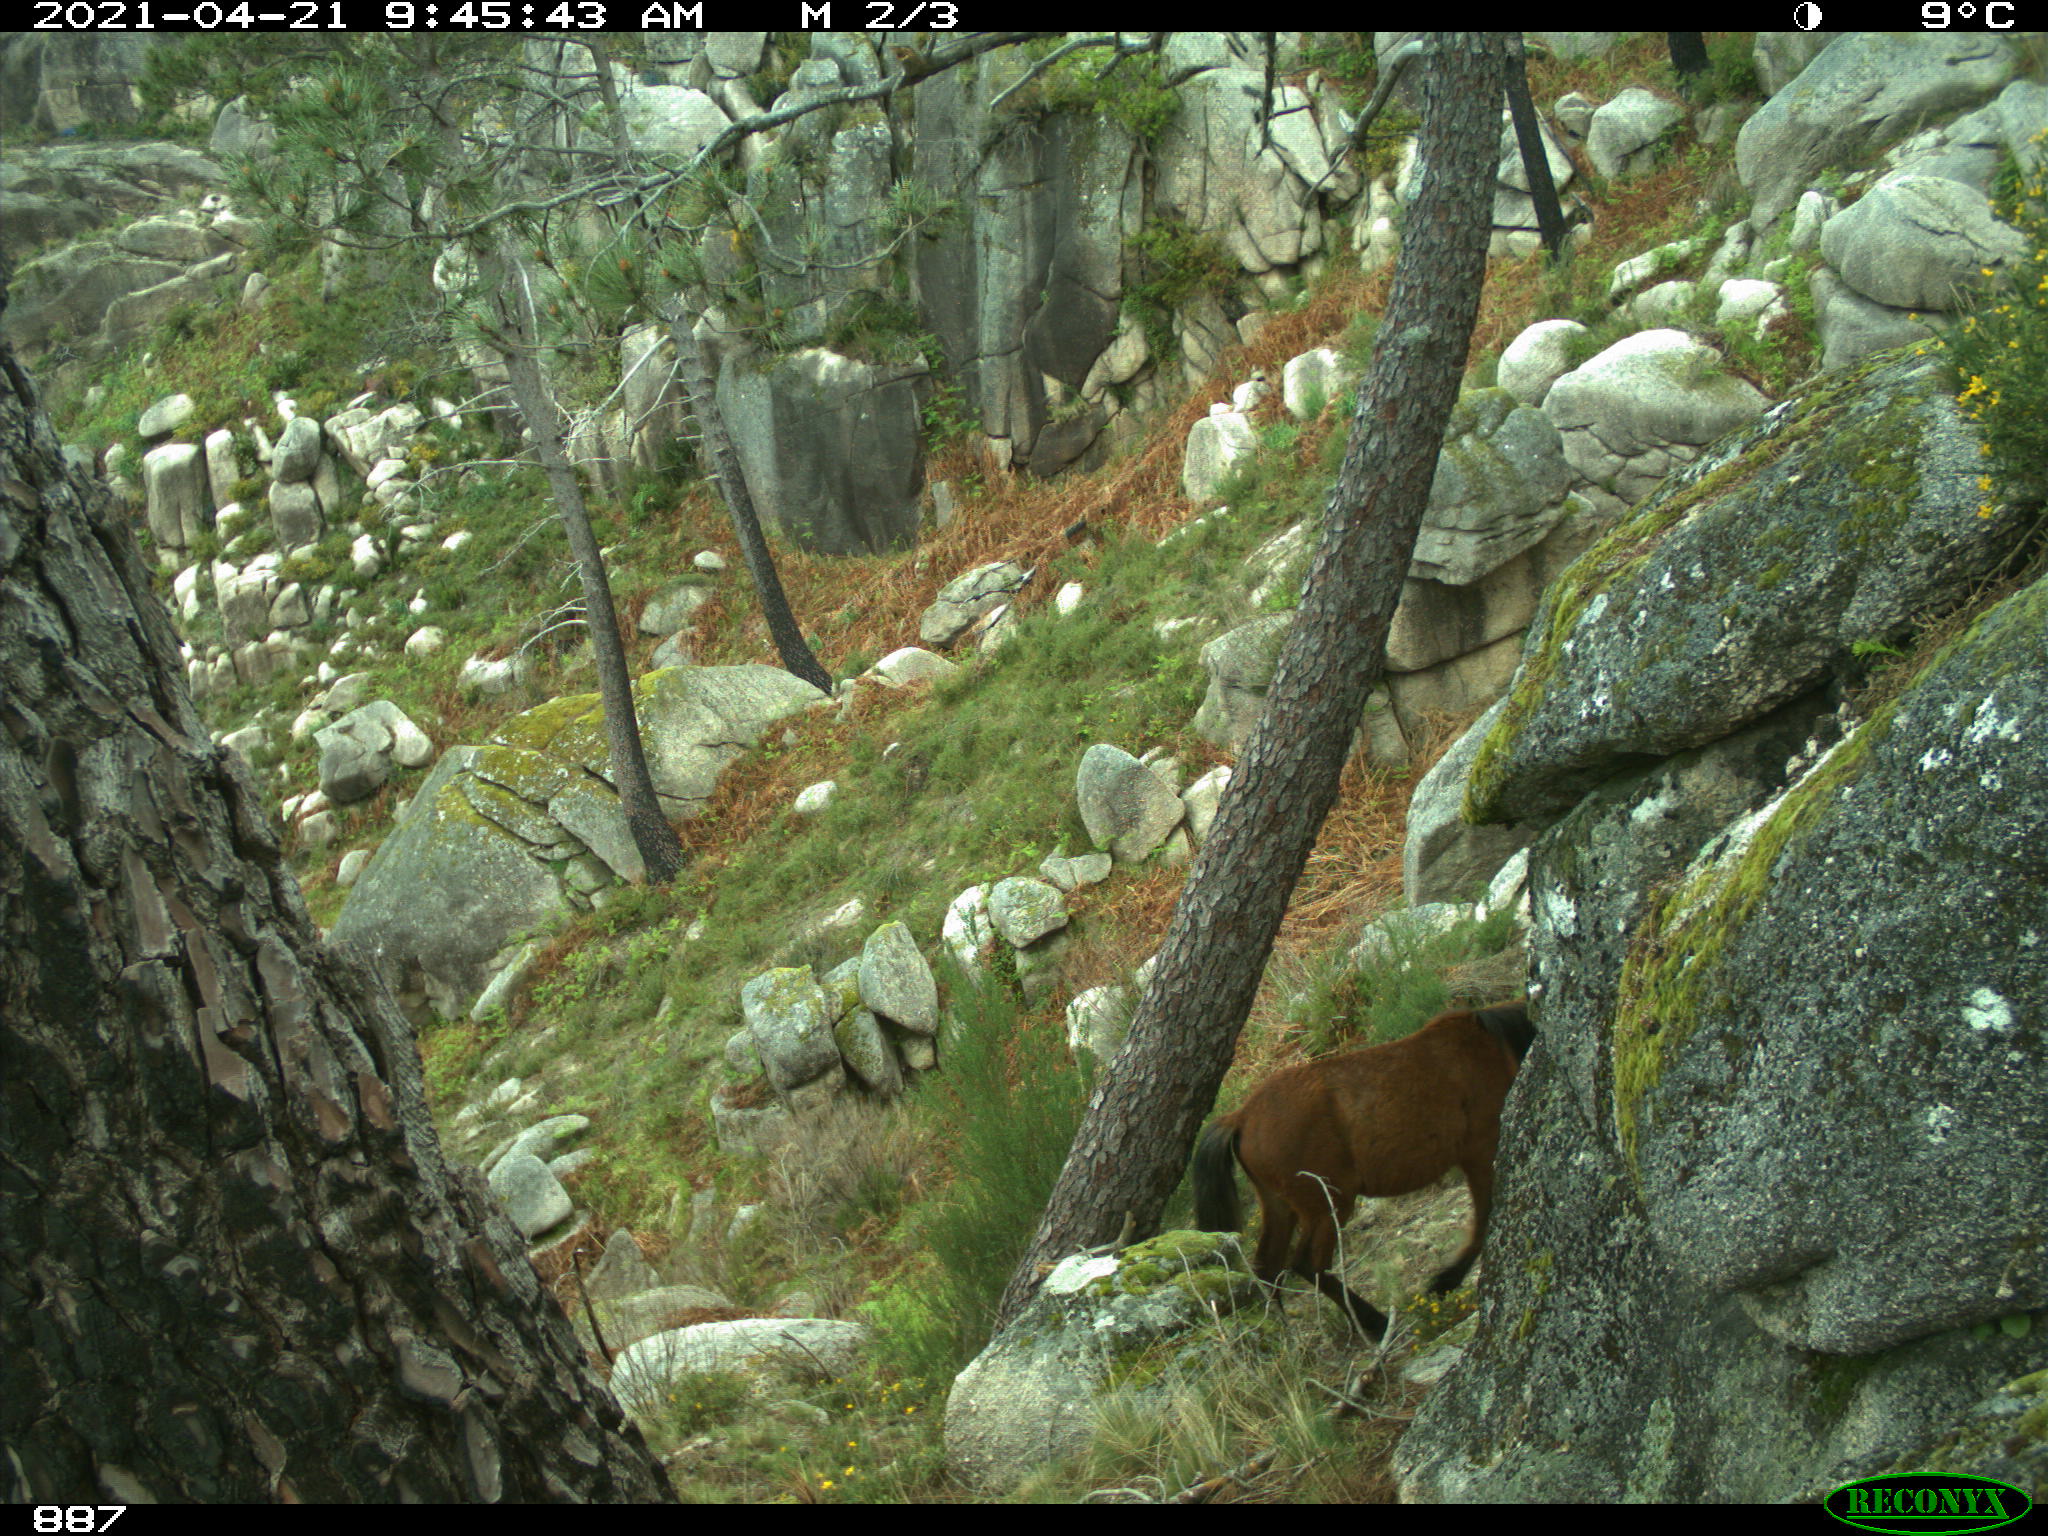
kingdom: Animalia
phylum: Chordata
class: Mammalia
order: Perissodactyla
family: Equidae
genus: Equus
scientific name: Equus caballus
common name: Horse
